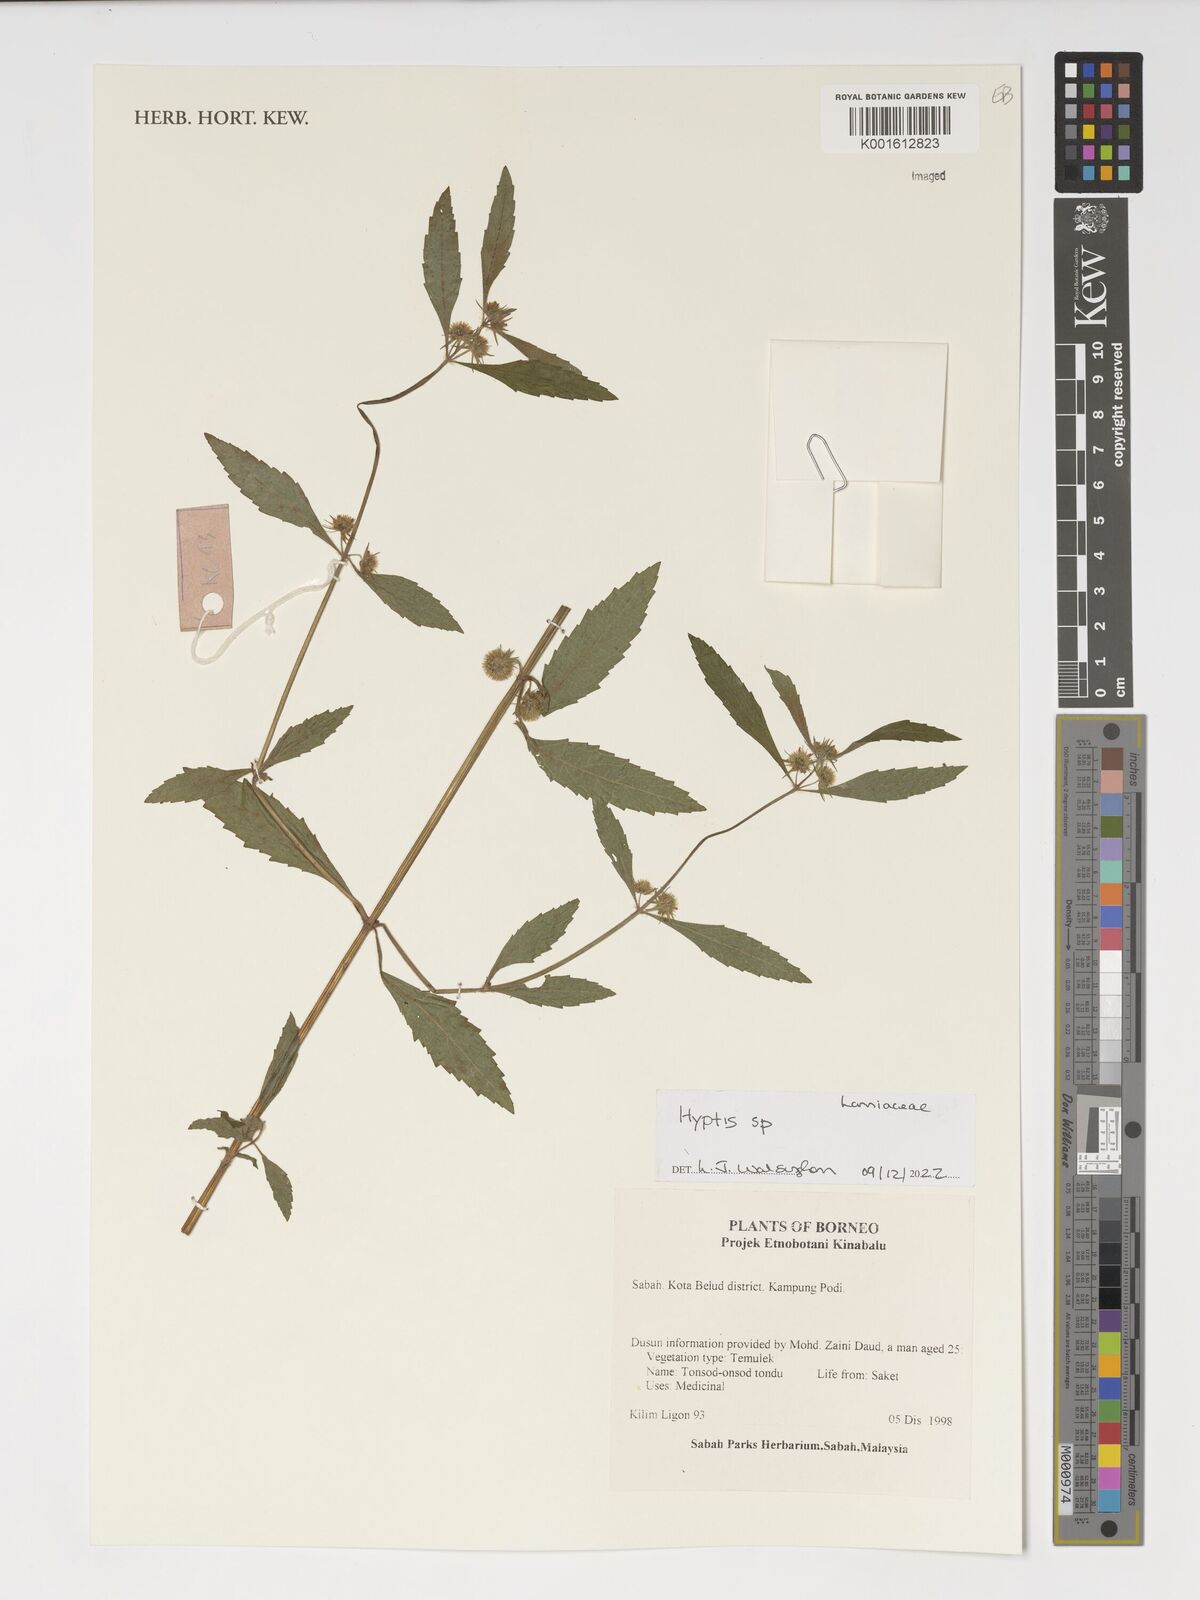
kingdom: Plantae
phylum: Tracheophyta
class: Magnoliopsida
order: Lamiales
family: Lamiaceae
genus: Hyptis
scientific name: Hyptis
